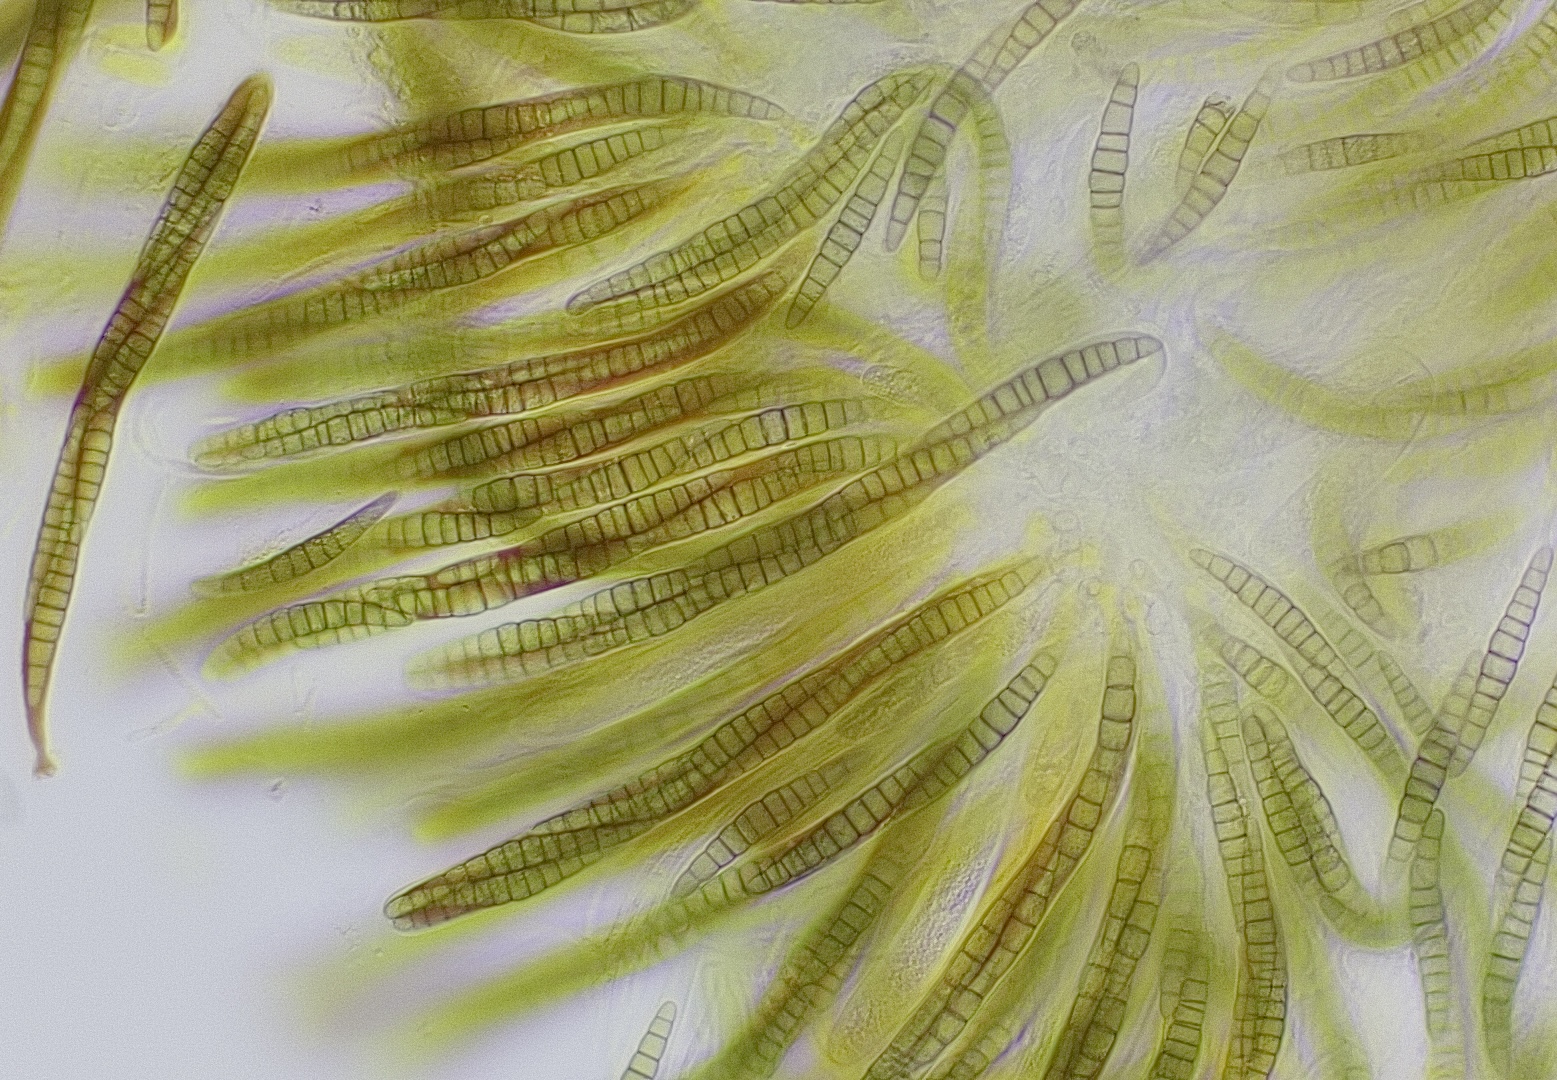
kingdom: Fungi
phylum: Ascomycota
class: Dothideomycetes
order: Pleosporales
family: Leptosphaeriaceae
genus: Leptosphaeria
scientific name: Leptosphaeria acuta
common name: spids kulkegle
